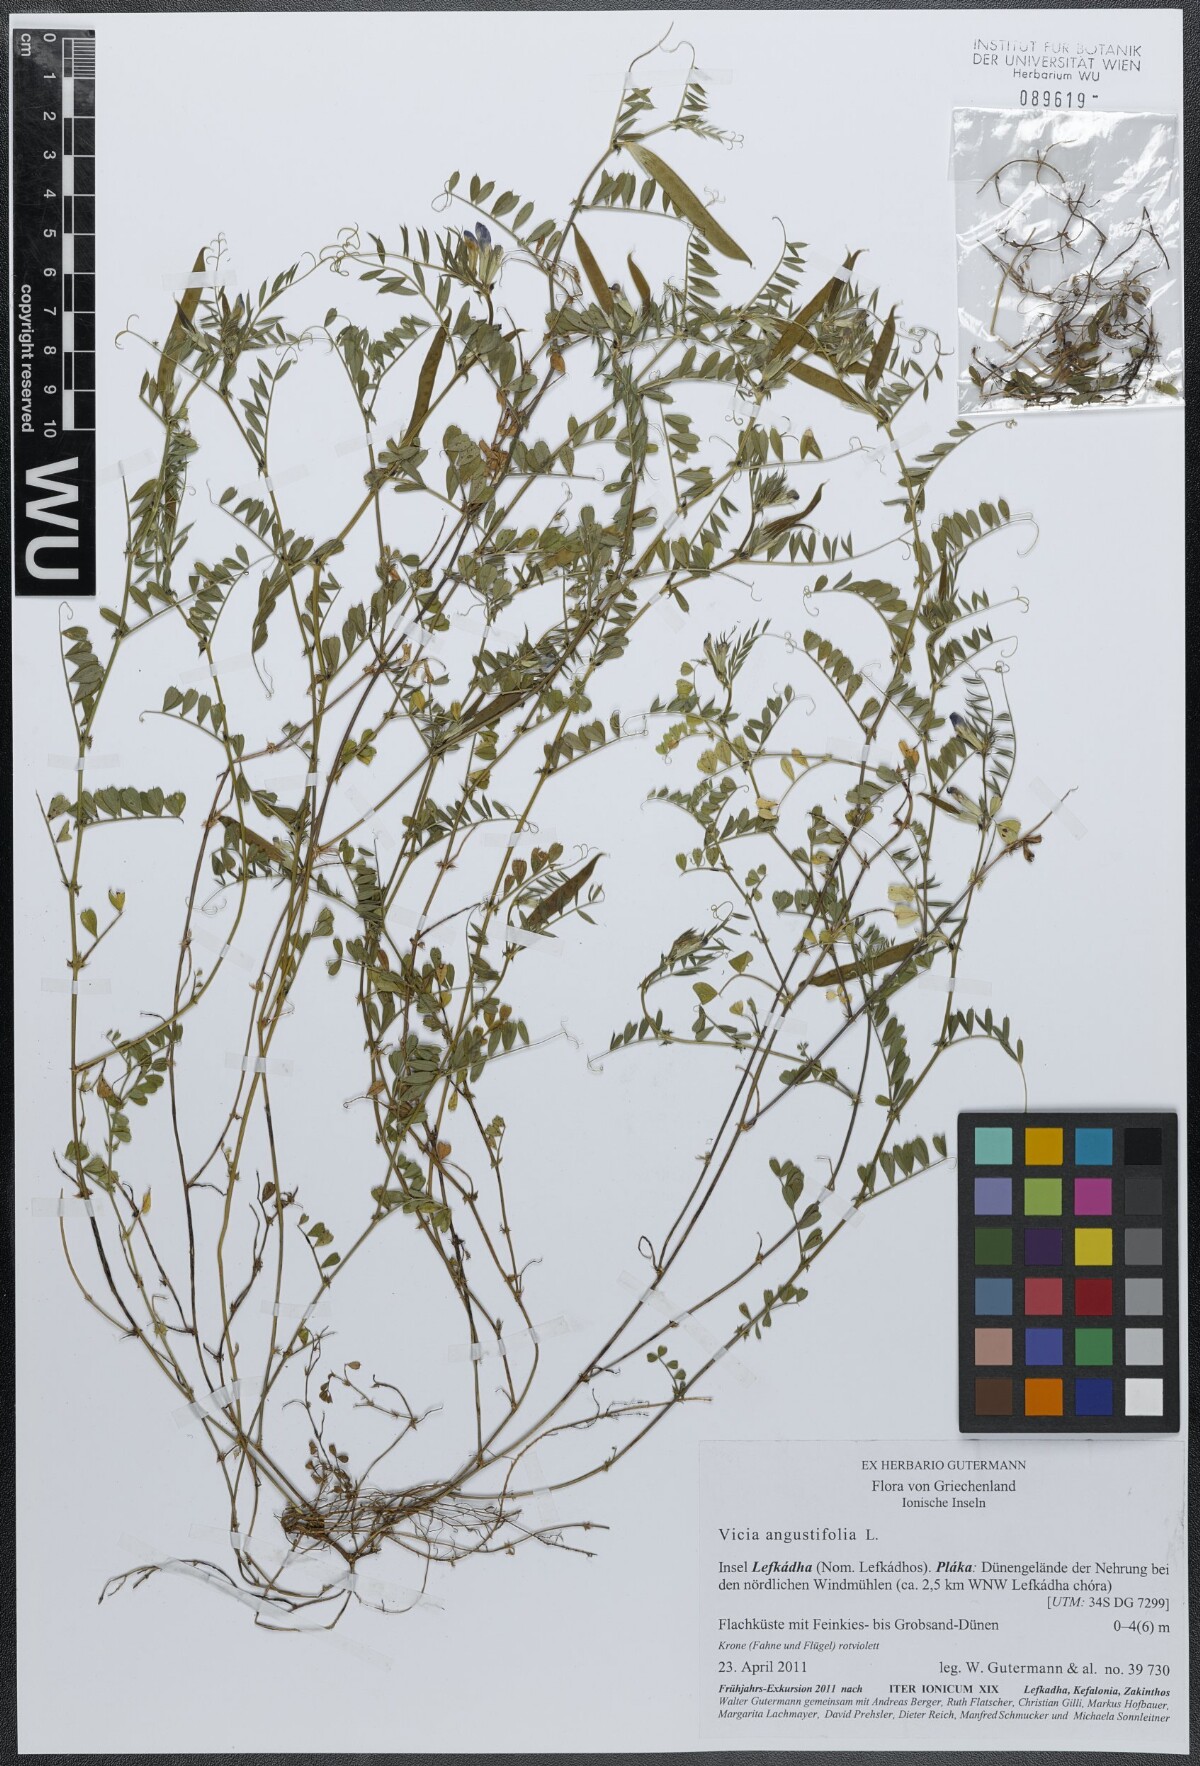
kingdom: Plantae
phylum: Tracheophyta
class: Magnoliopsida
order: Fabales
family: Fabaceae
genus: Vicia
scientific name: Vicia sativa
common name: Garden vetch
